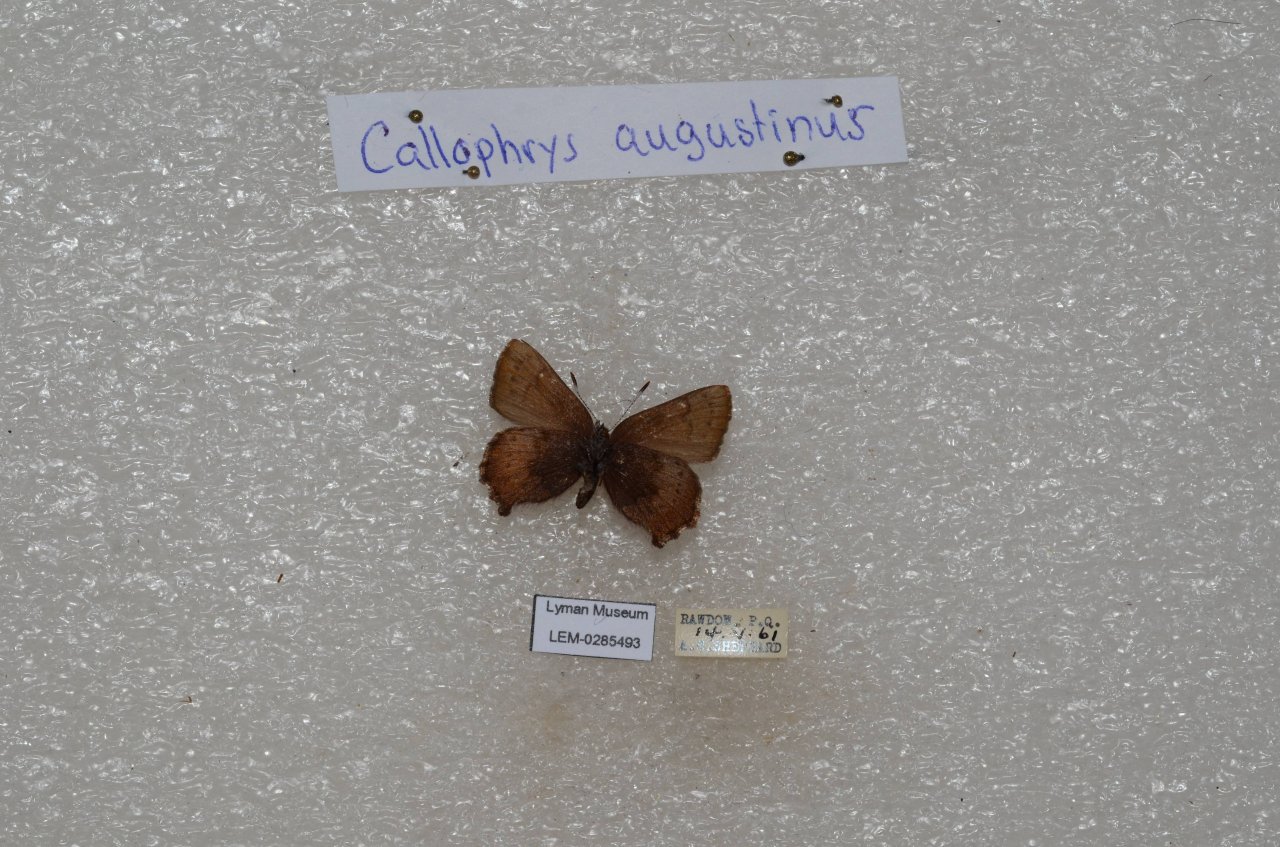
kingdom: Animalia
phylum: Arthropoda
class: Insecta
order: Lepidoptera
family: Lycaenidae
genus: Incisalia
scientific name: Incisalia irioides
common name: Brown Elfin
